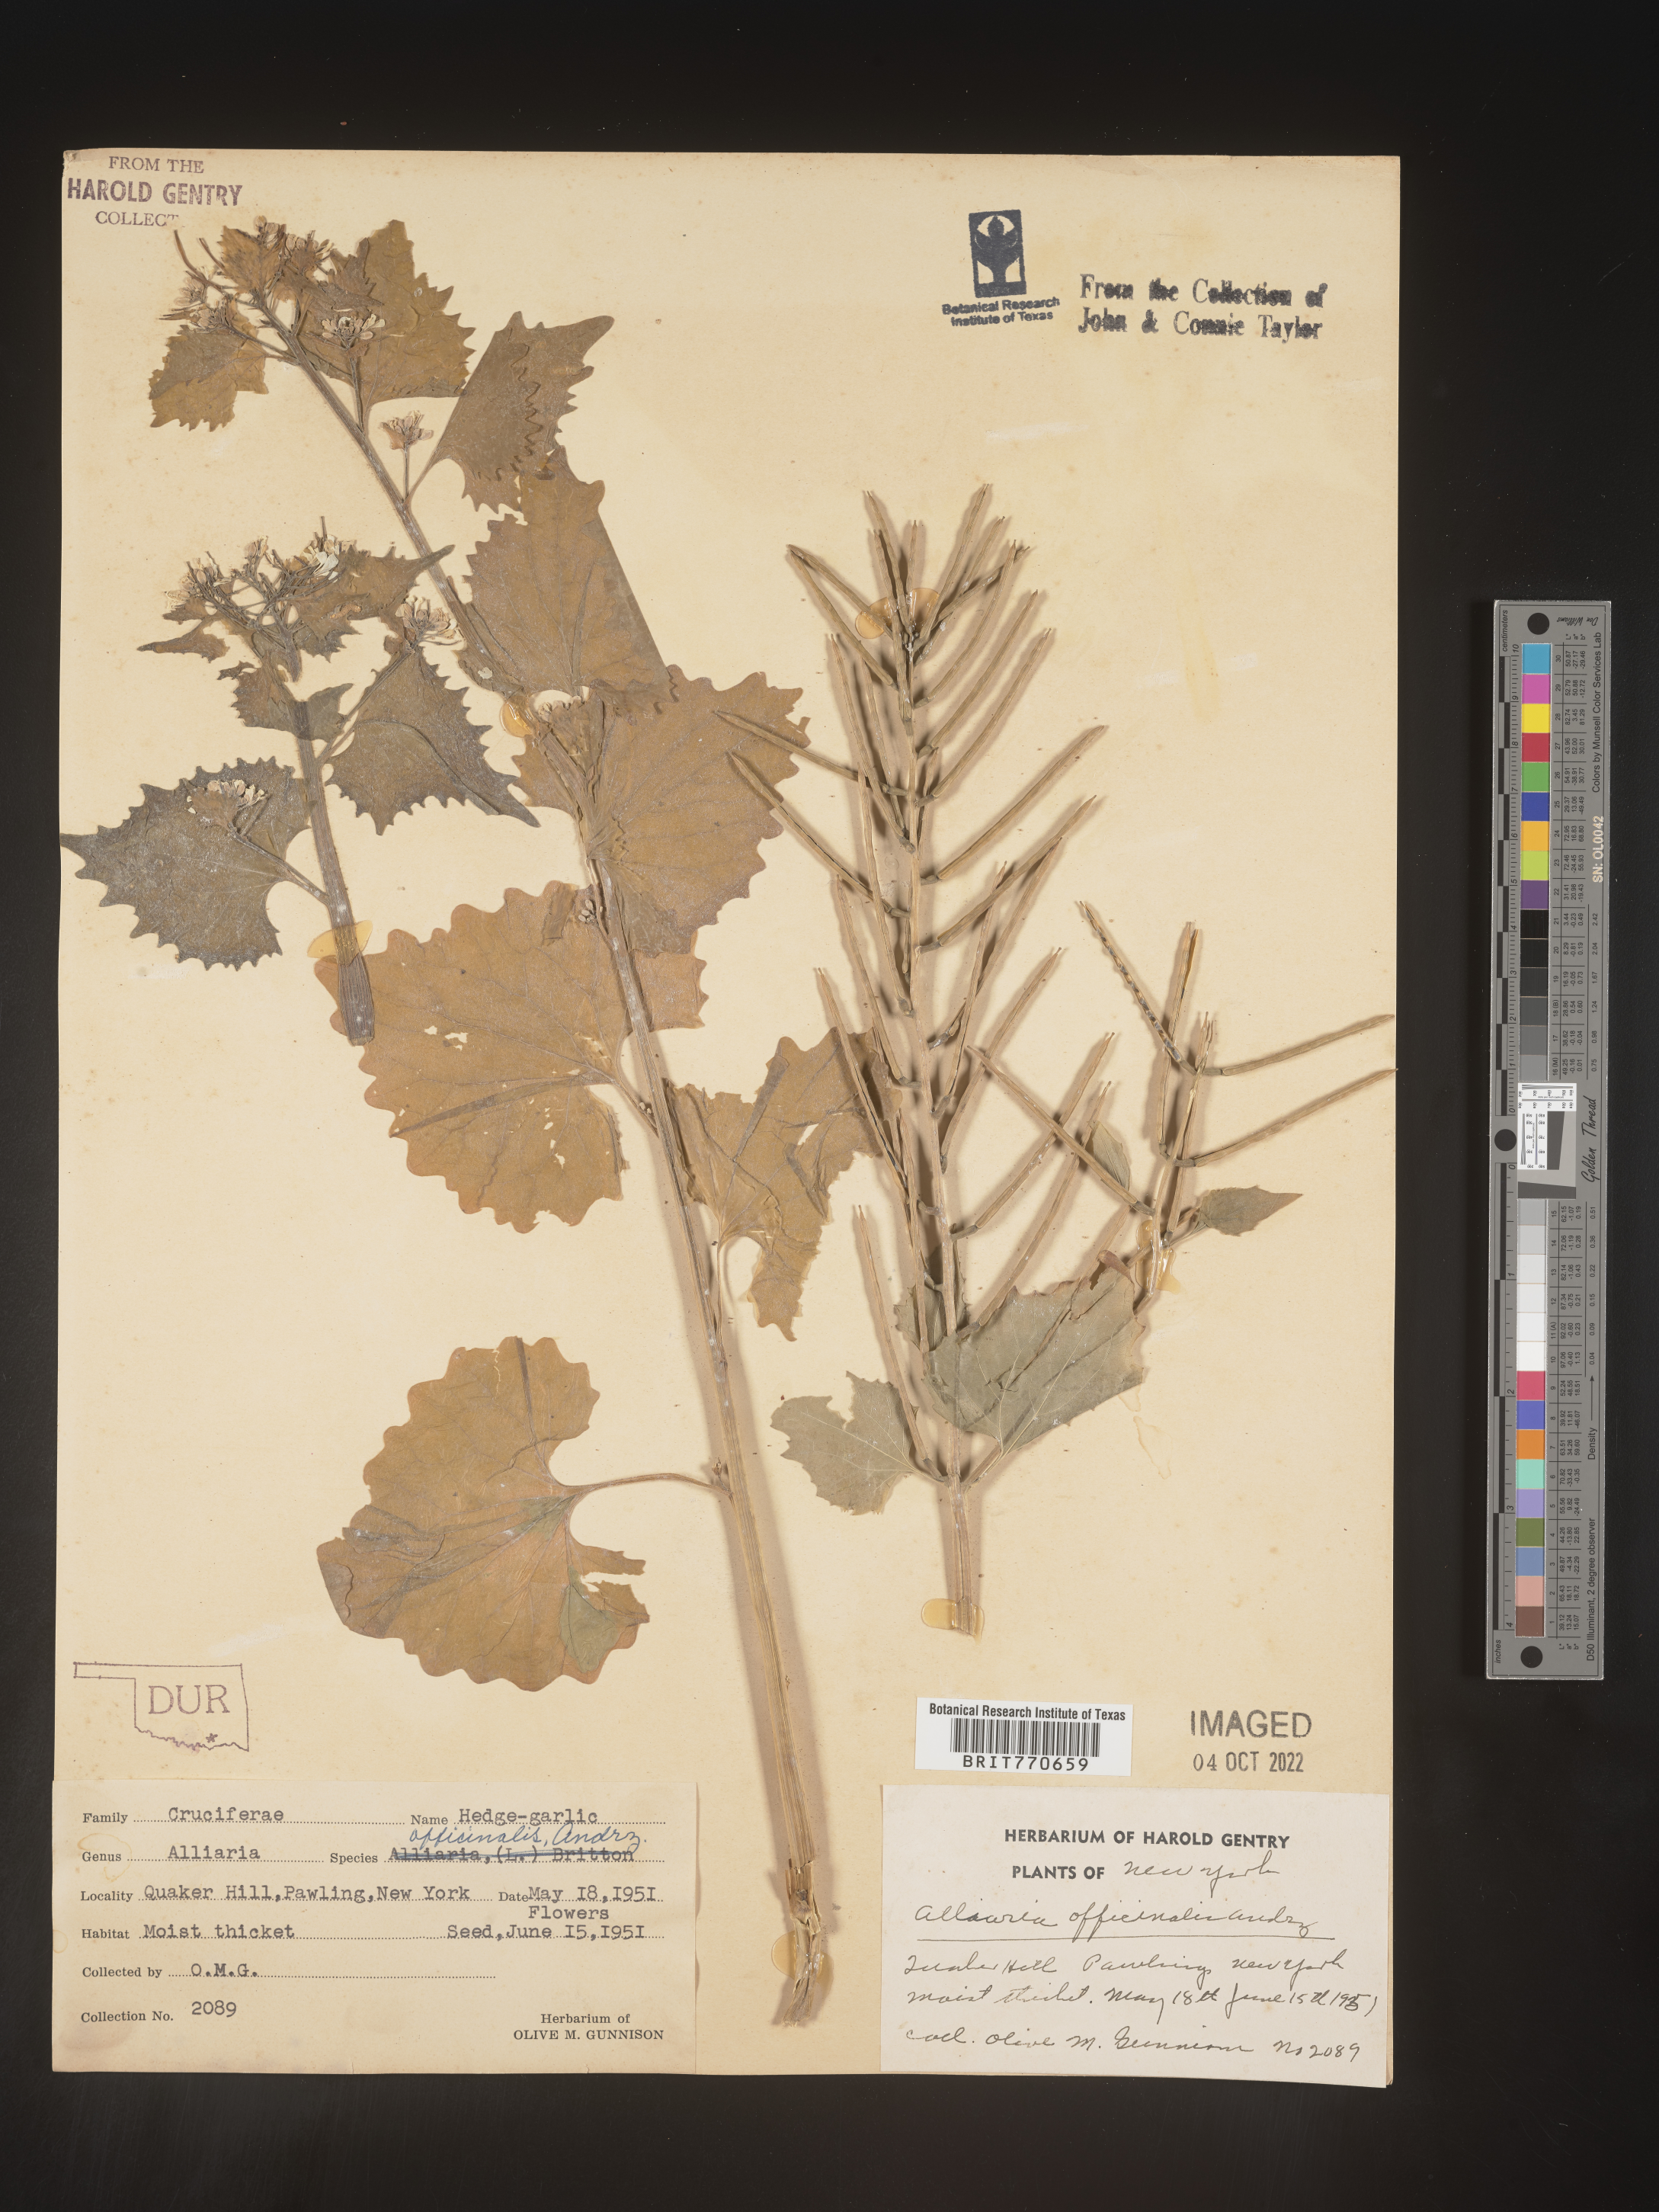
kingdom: Plantae
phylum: Tracheophyta
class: Magnoliopsida
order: Brassicales
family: Brassicaceae
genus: Alliaria
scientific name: Alliaria
